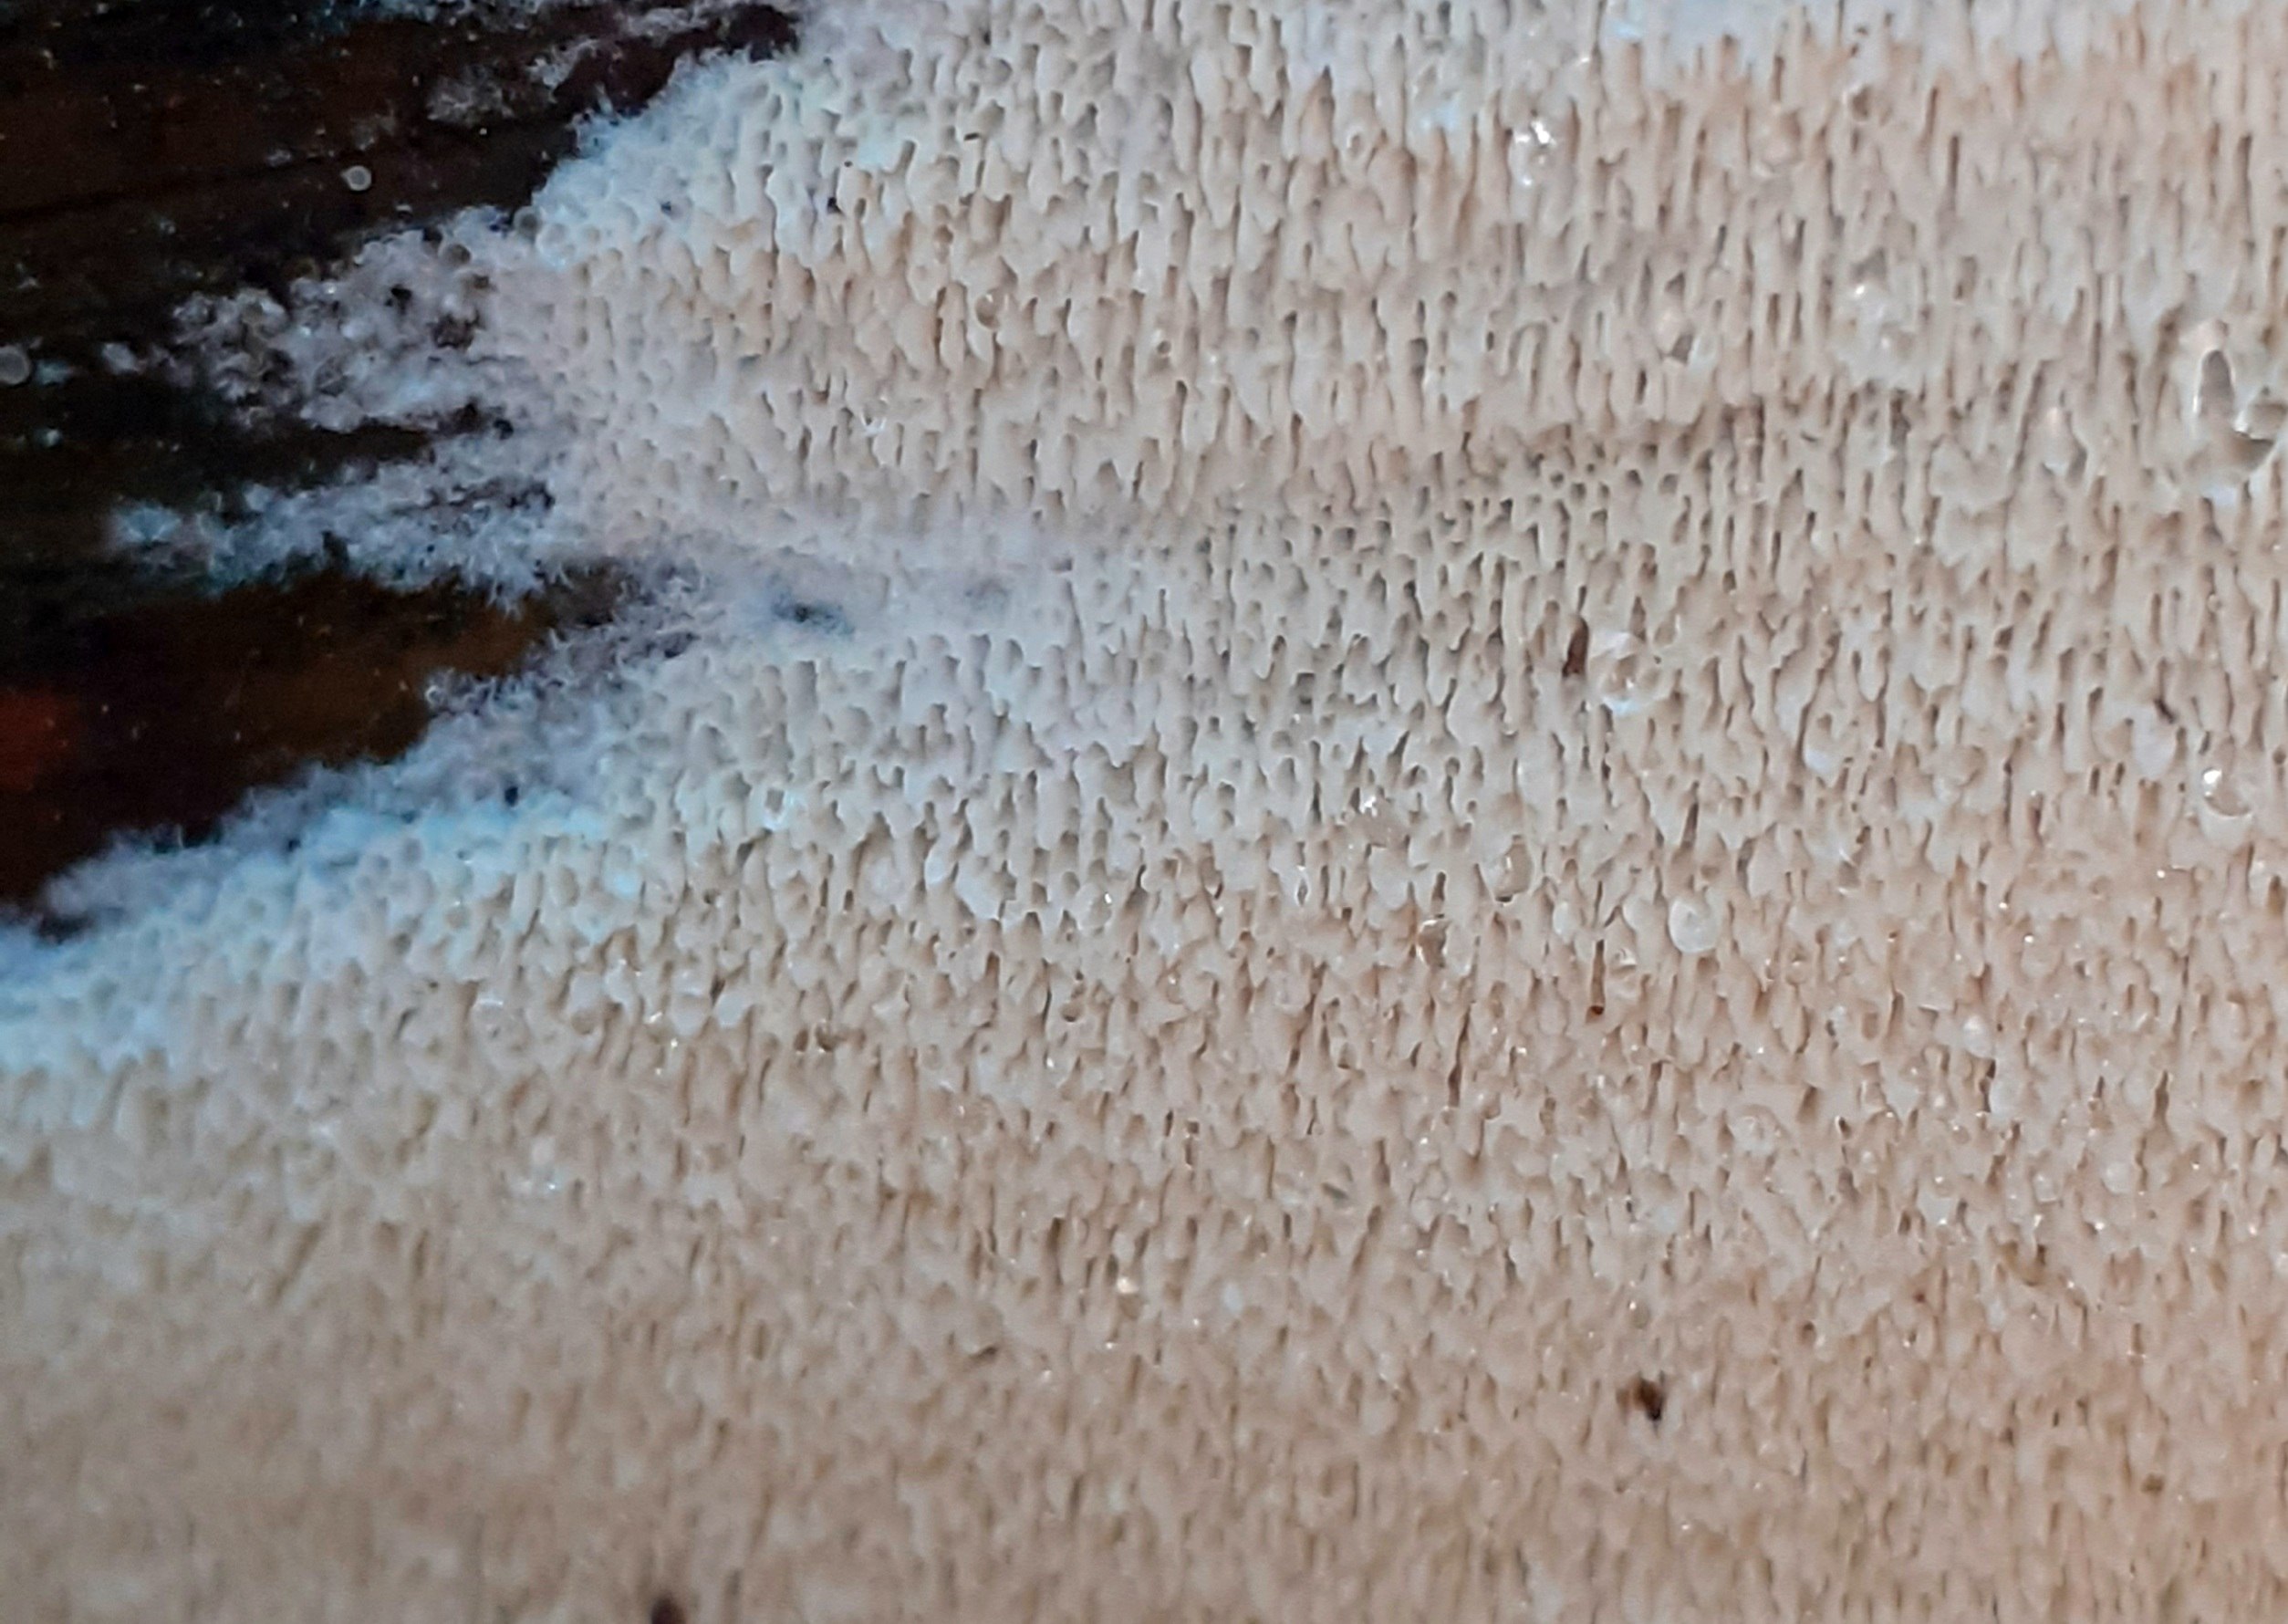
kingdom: Fungi
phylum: Basidiomycota
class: Agaricomycetes
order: Hymenochaetales
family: Schizoporaceae
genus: Schizopora
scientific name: Schizopora paradoxa
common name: hvid tandsvamp
